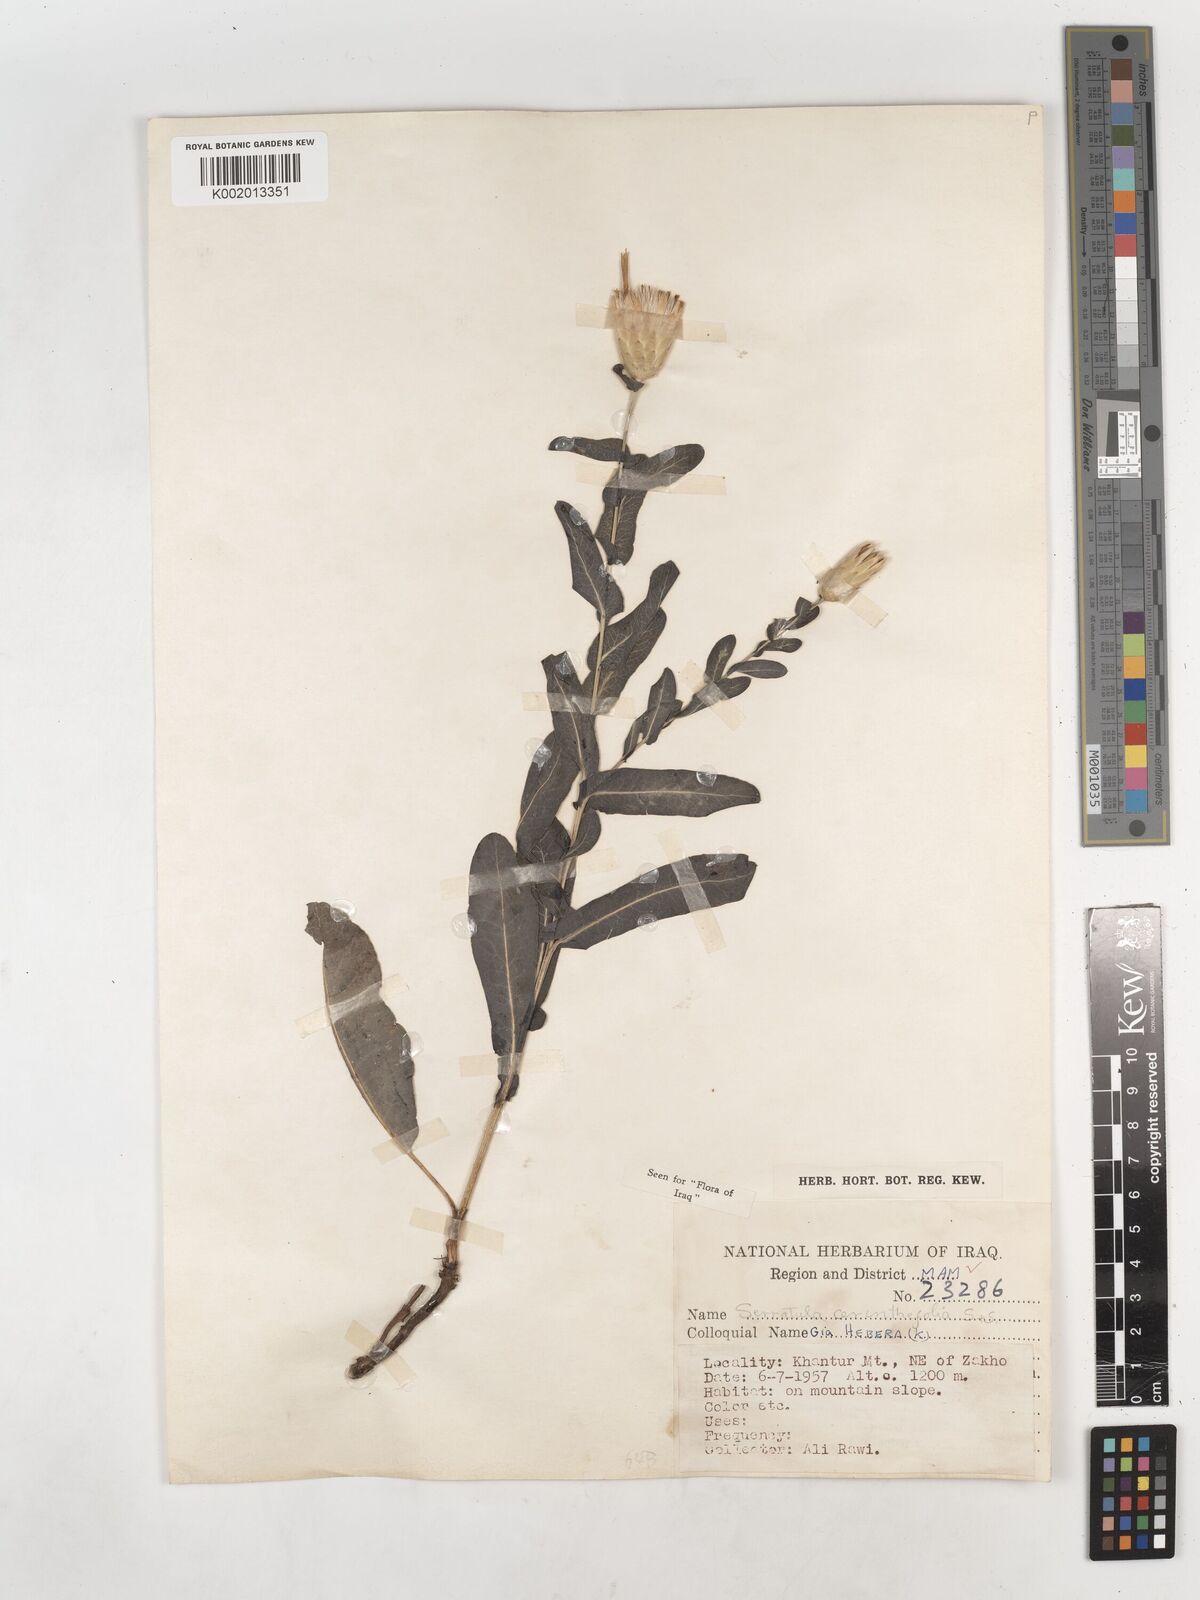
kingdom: Plantae
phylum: Tracheophyta
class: Magnoliopsida
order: Asterales
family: Asteraceae
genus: Klasea
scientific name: Klasea cerinthifolia
